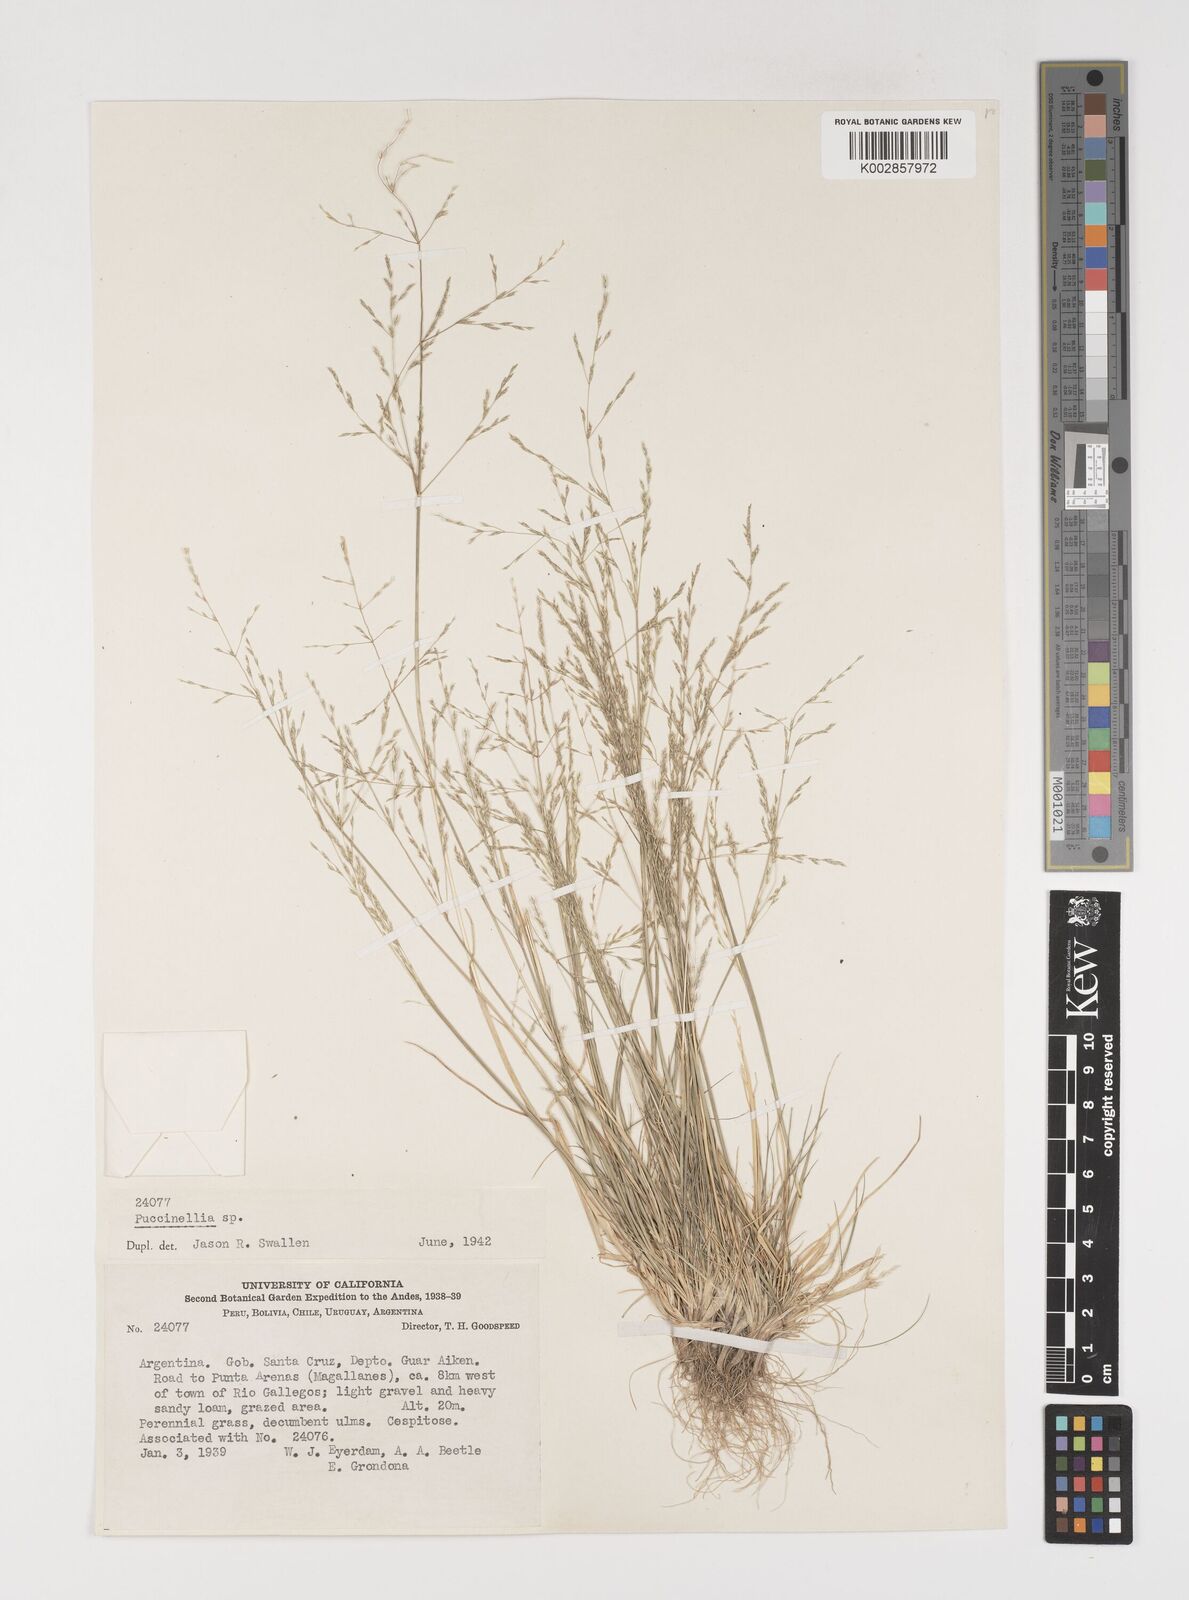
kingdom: Plantae
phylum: Tracheophyta
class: Liliopsida
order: Poales
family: Poaceae
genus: Puccinellia
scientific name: Puccinellia skottsbergii
